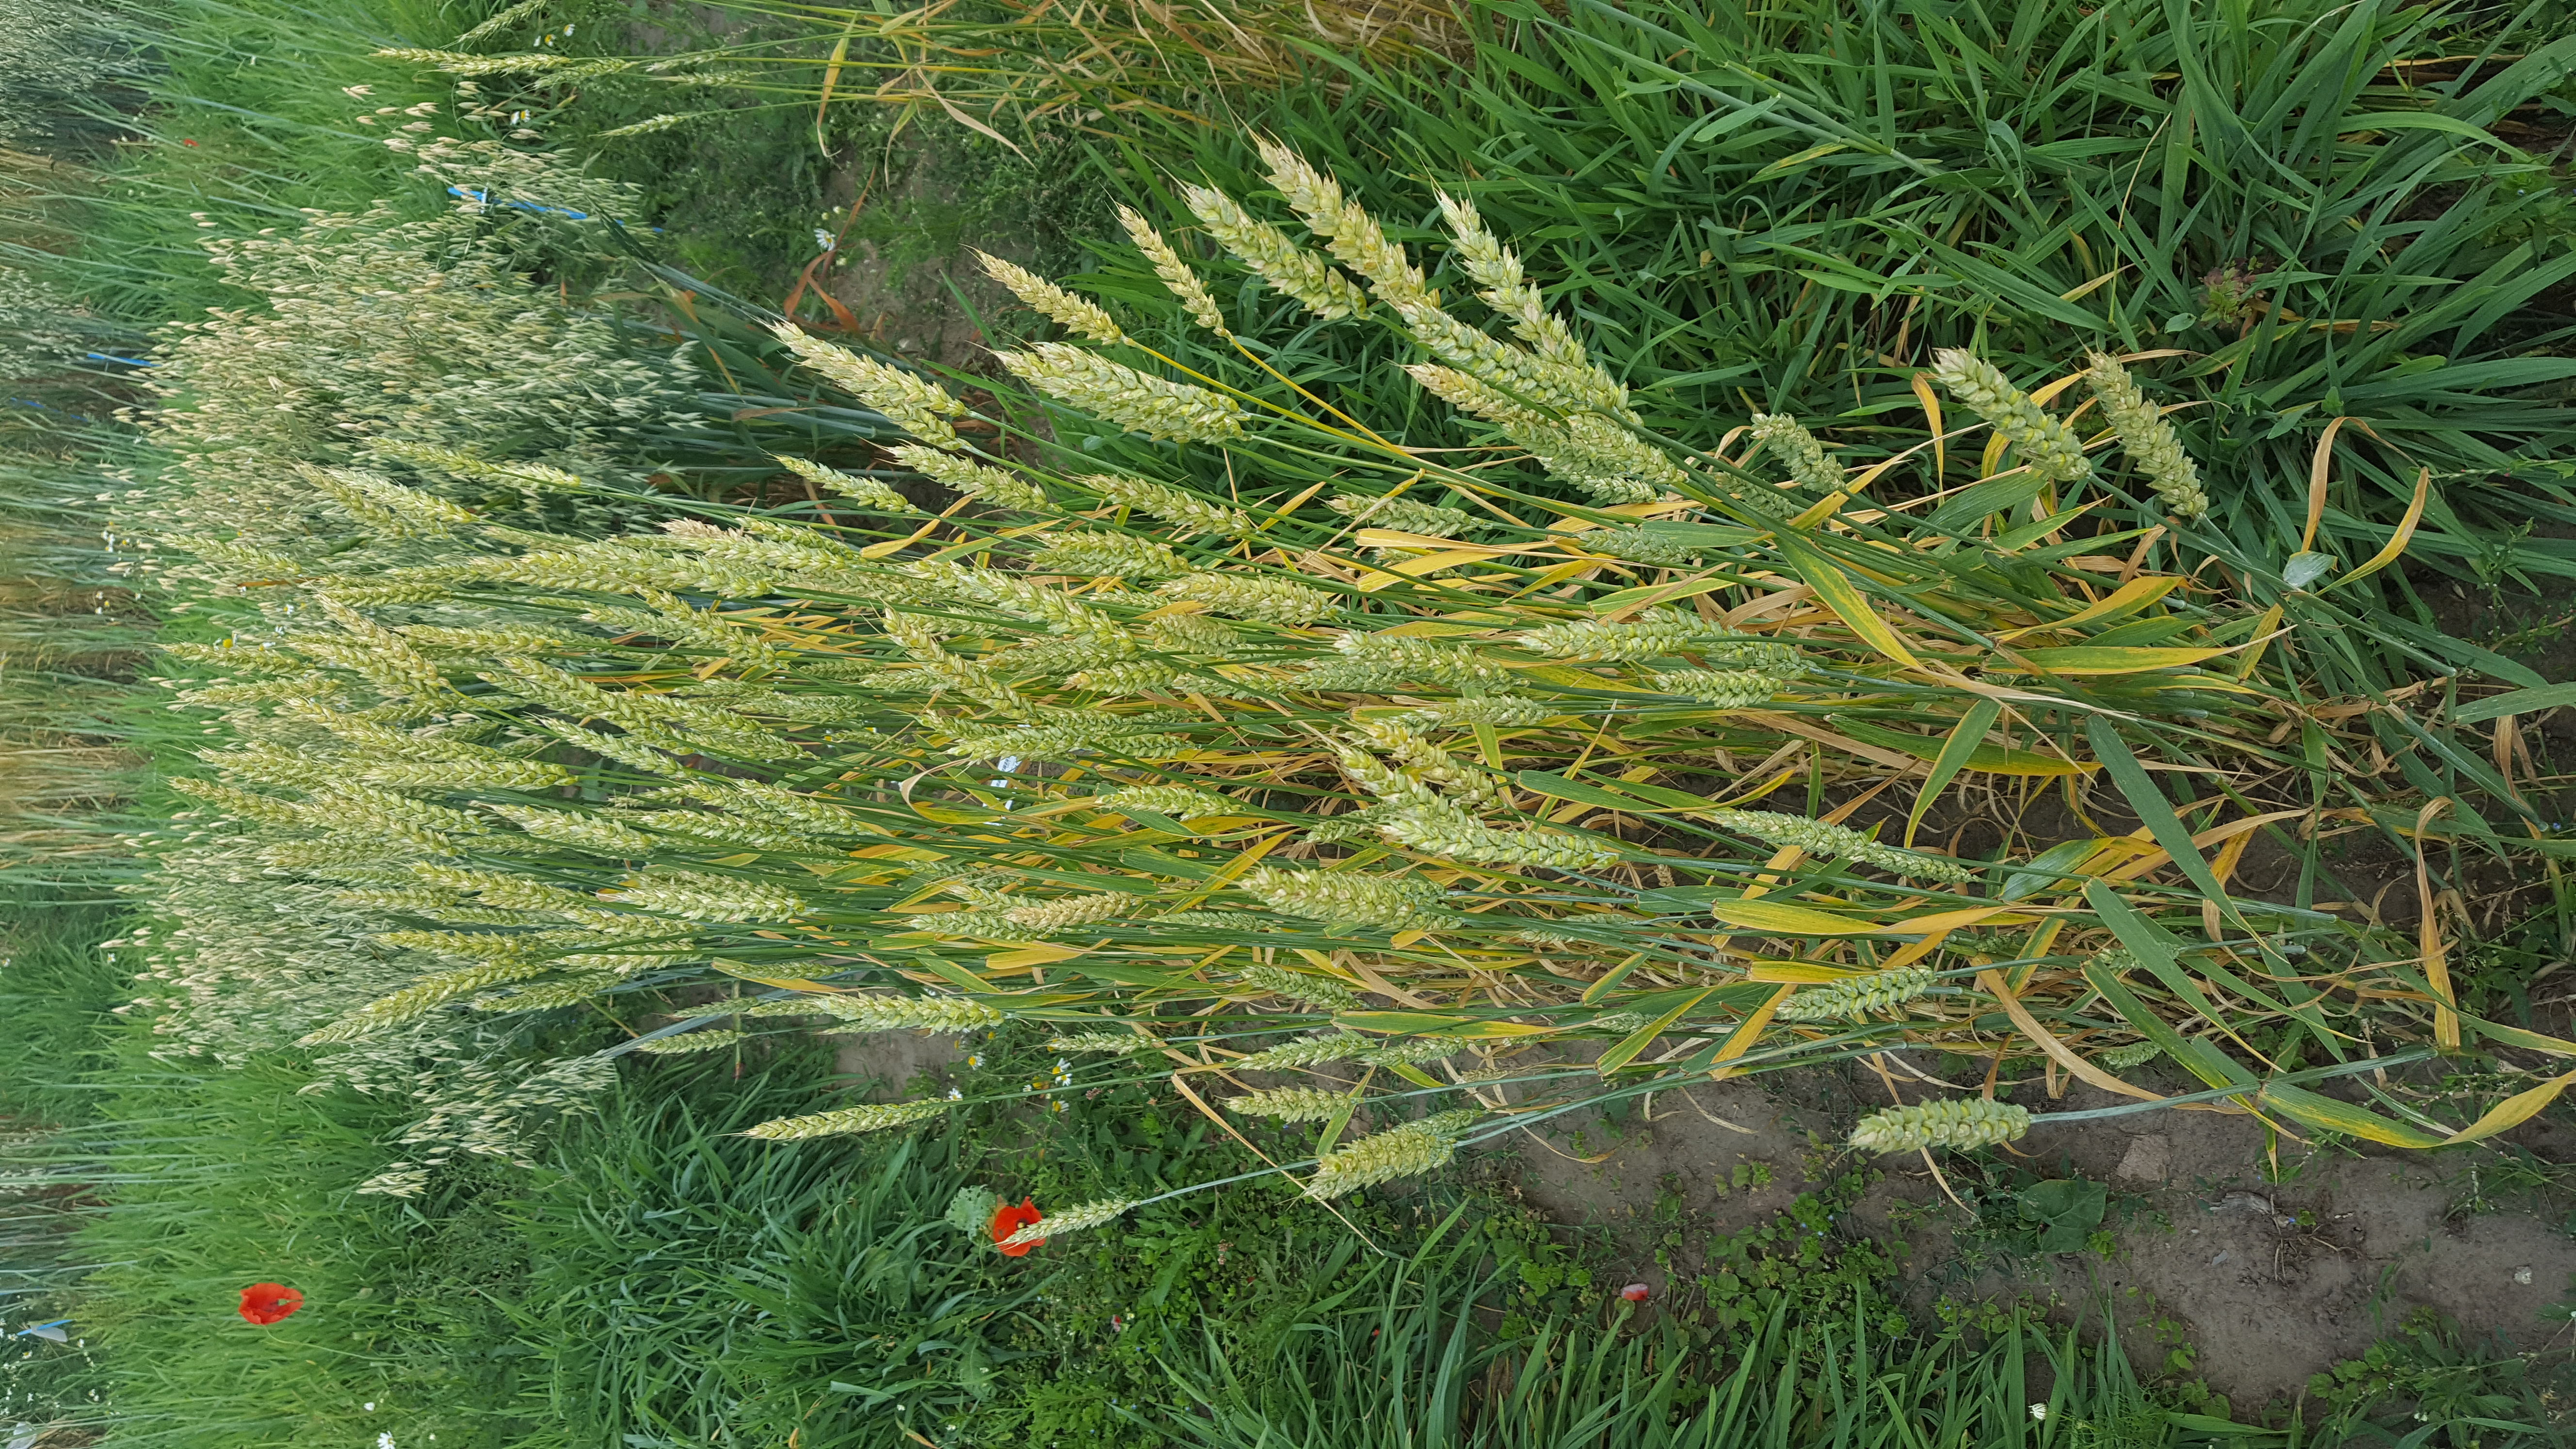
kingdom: Plantae
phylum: Tracheophyta
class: Liliopsida
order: Poales
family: Poaceae
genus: Triticum
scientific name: Triticum aestivum
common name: Common wheat
